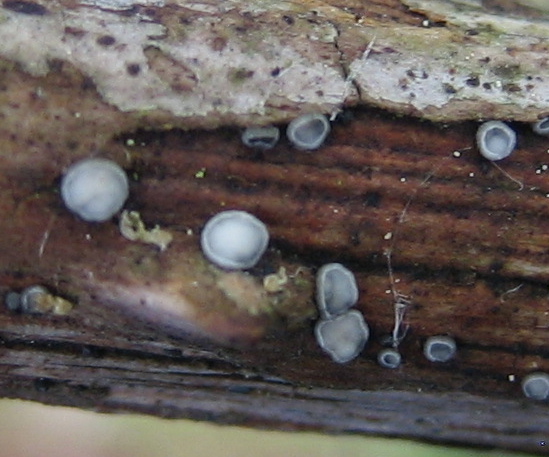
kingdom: Fungi
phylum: Ascomycota
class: Leotiomycetes
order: Helotiales
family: Dermateaceae
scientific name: Dermateaceae
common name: gråskivefamilien
